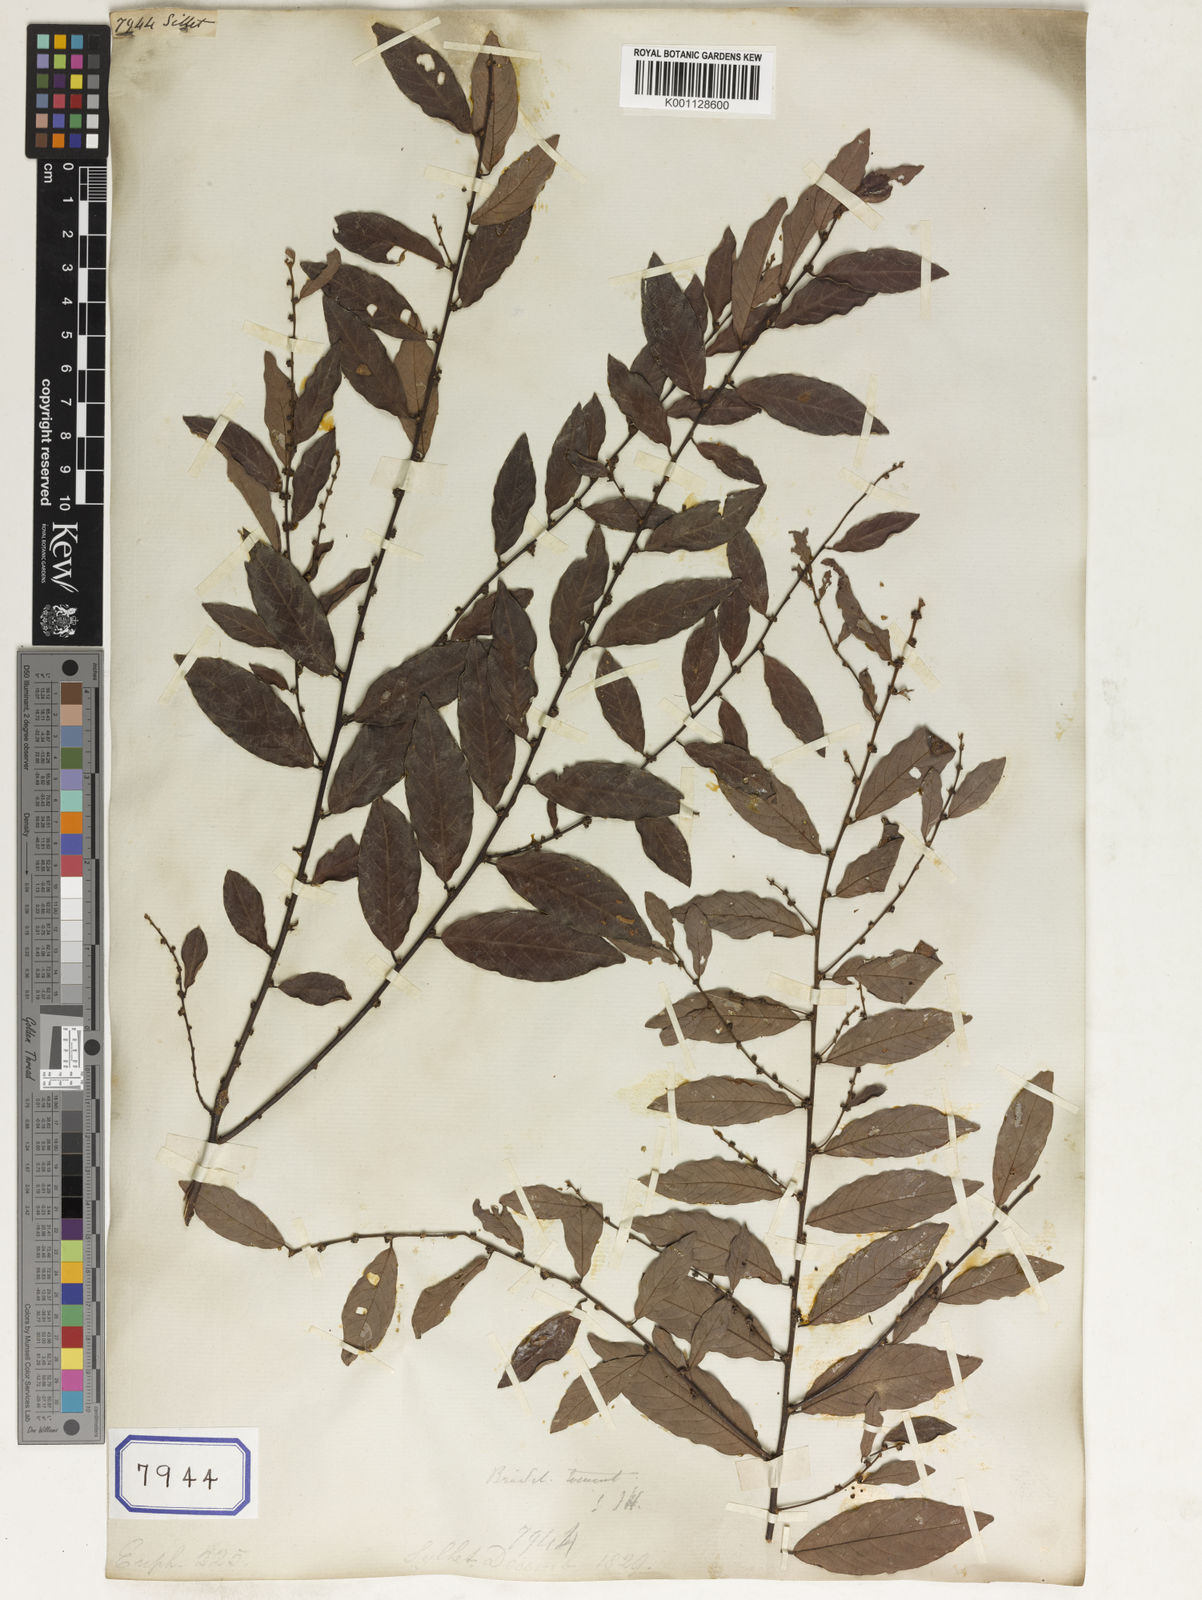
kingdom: Plantae
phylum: Tracheophyta
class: Magnoliopsida
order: Malpighiales
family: Euphorbiaceae
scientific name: Euphorbiaceae
